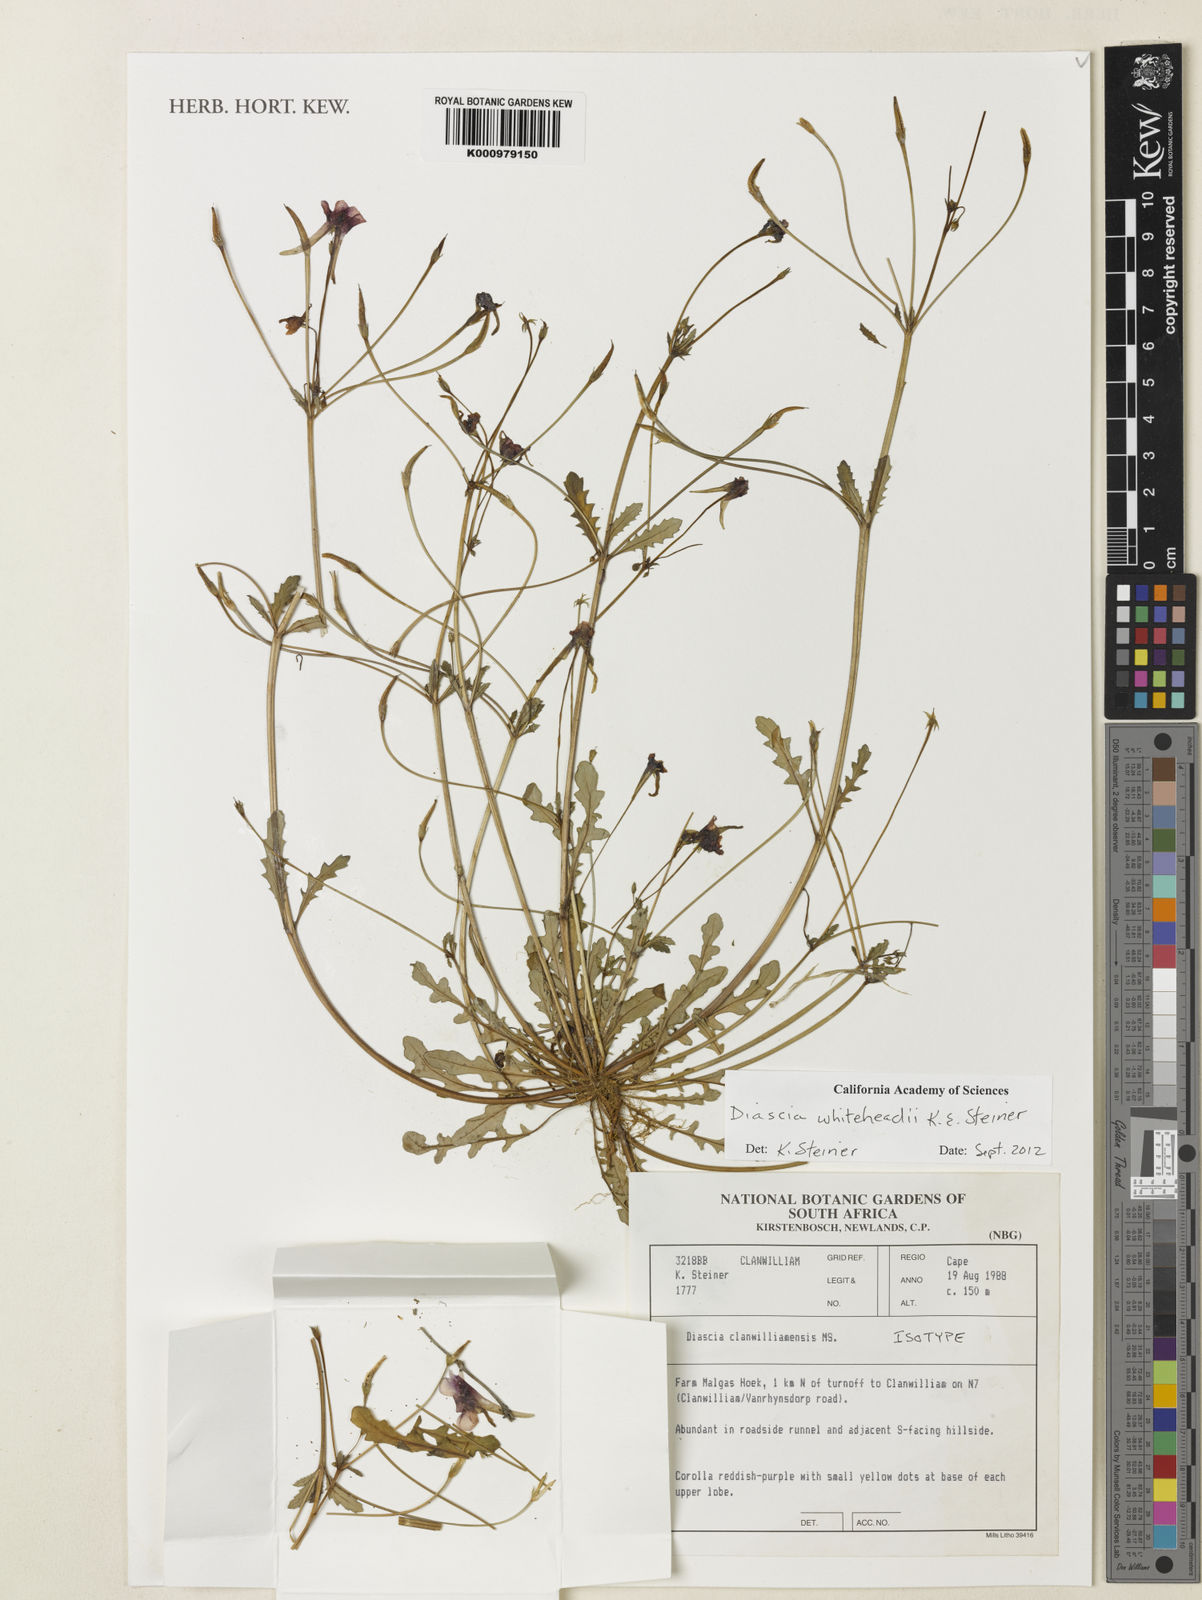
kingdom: Plantae
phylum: Tracheophyta
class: Magnoliopsida
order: Lamiales
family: Scrophulariaceae
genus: Diascia
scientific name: Diascia
